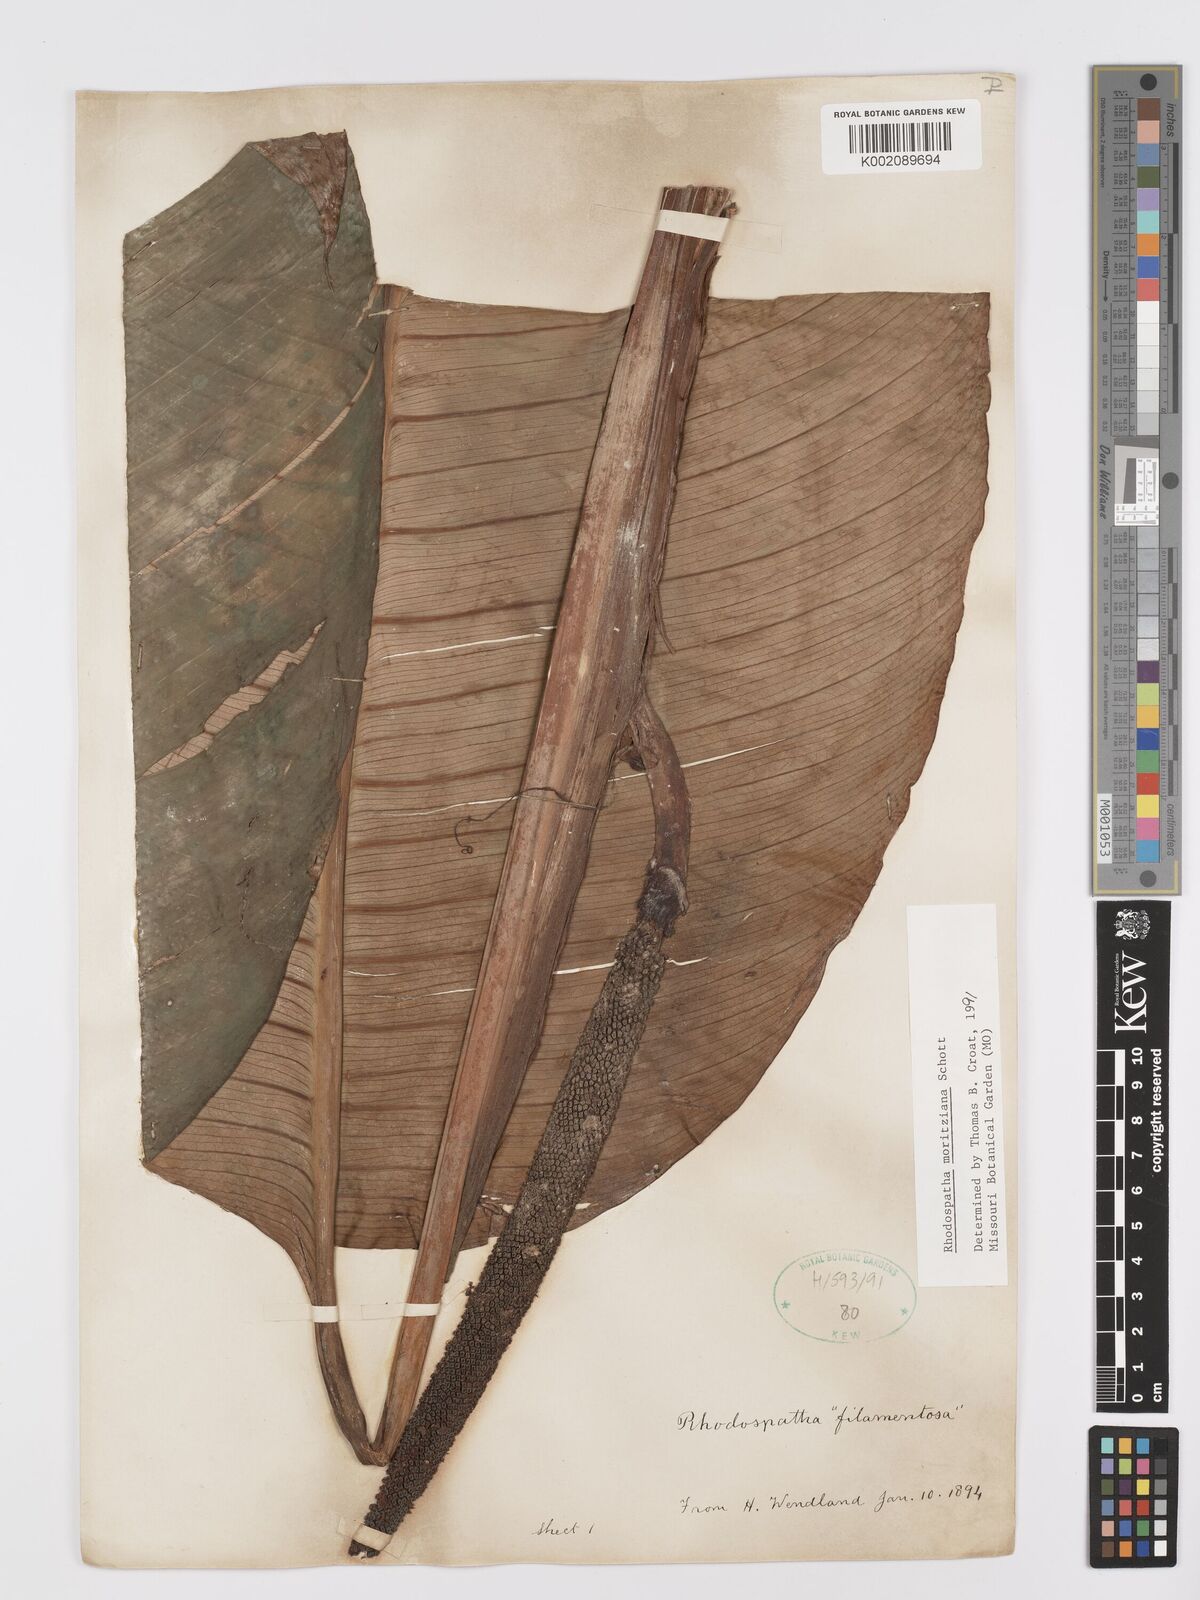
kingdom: Plantae
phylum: Tracheophyta
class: Liliopsida
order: Alismatales
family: Araceae
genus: Rhodospatha
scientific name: Rhodospatha moritziana
